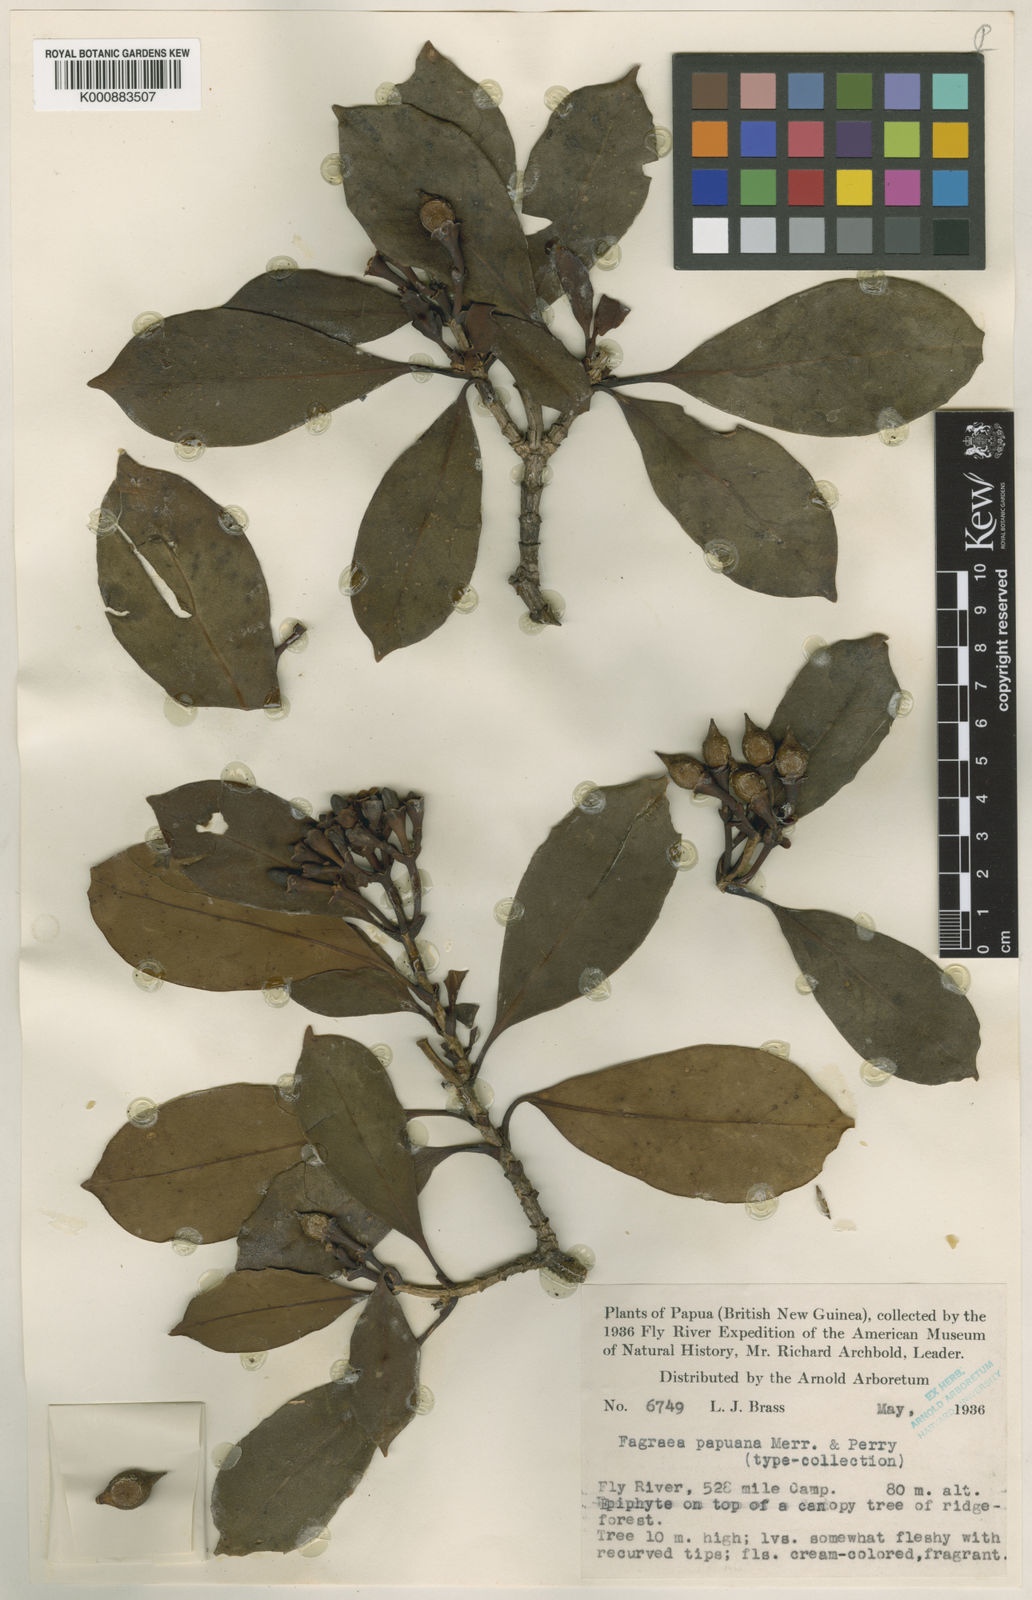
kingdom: Plantae
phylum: Tracheophyta
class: Magnoliopsida
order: Gentianales
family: Gentianaceae
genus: Fagraea
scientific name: Fagraea bodenii
